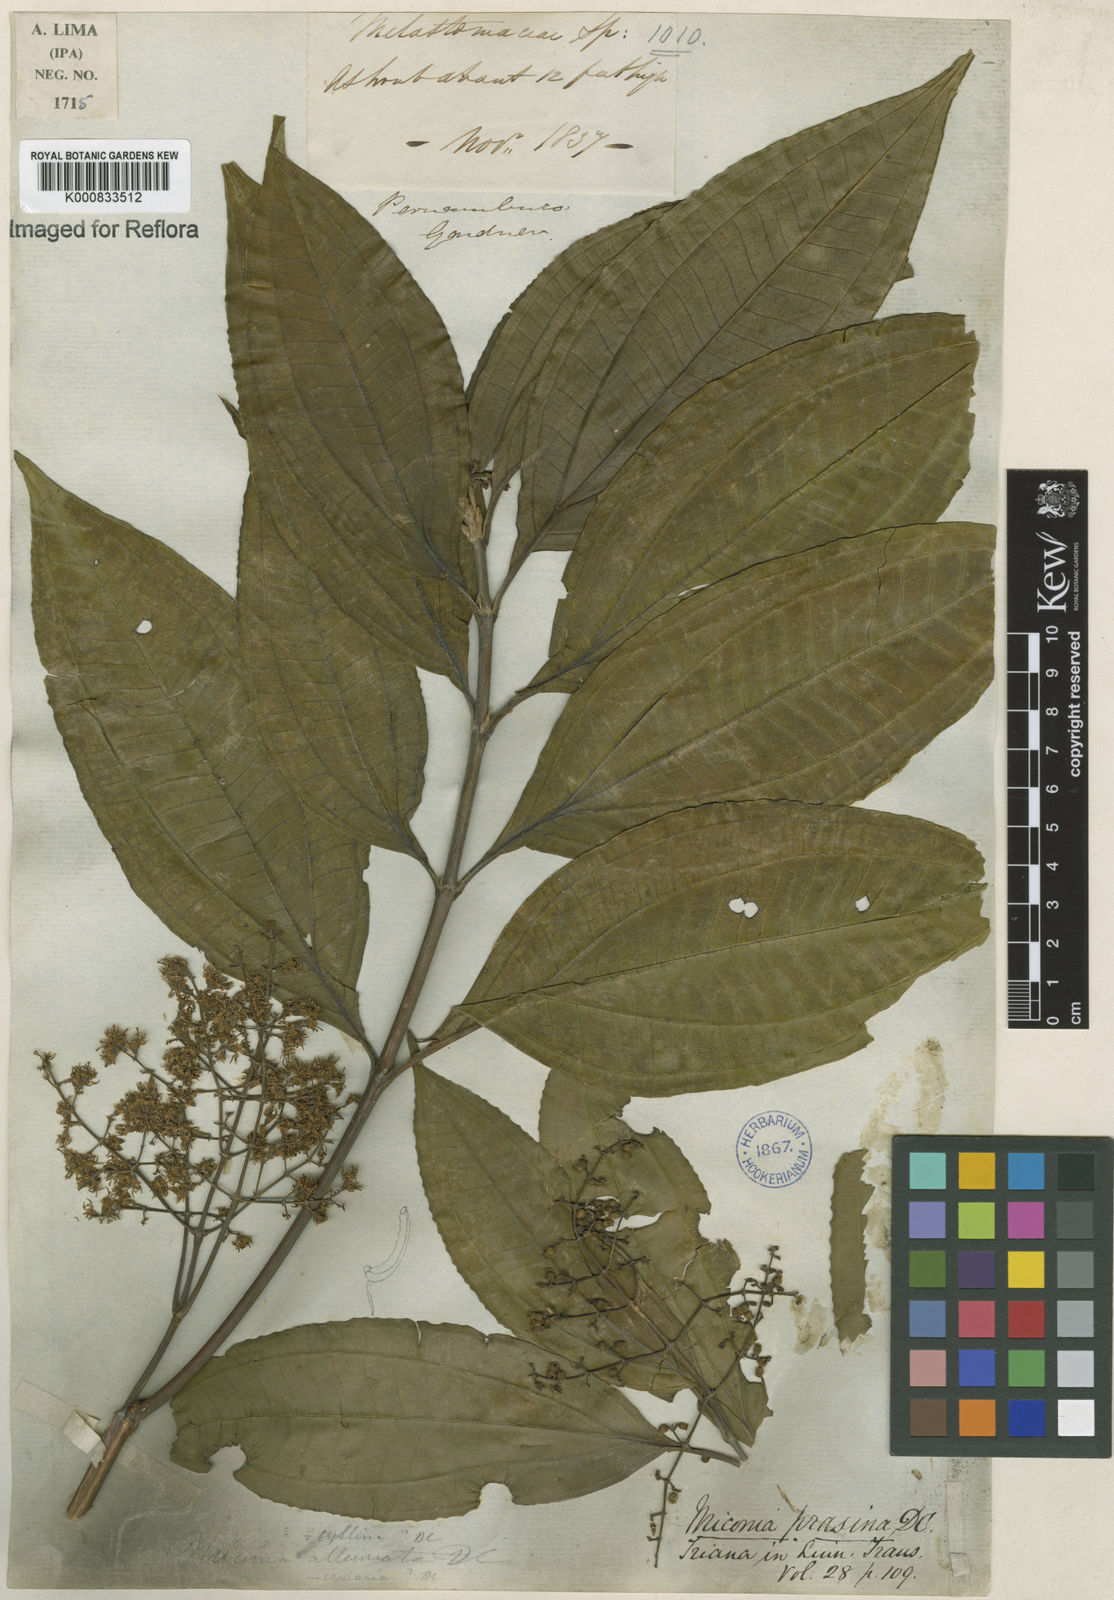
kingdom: Plantae
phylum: Tracheophyta
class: Magnoliopsida
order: Myrtales
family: Melastomataceae
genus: Miconia
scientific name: Miconia prasina
